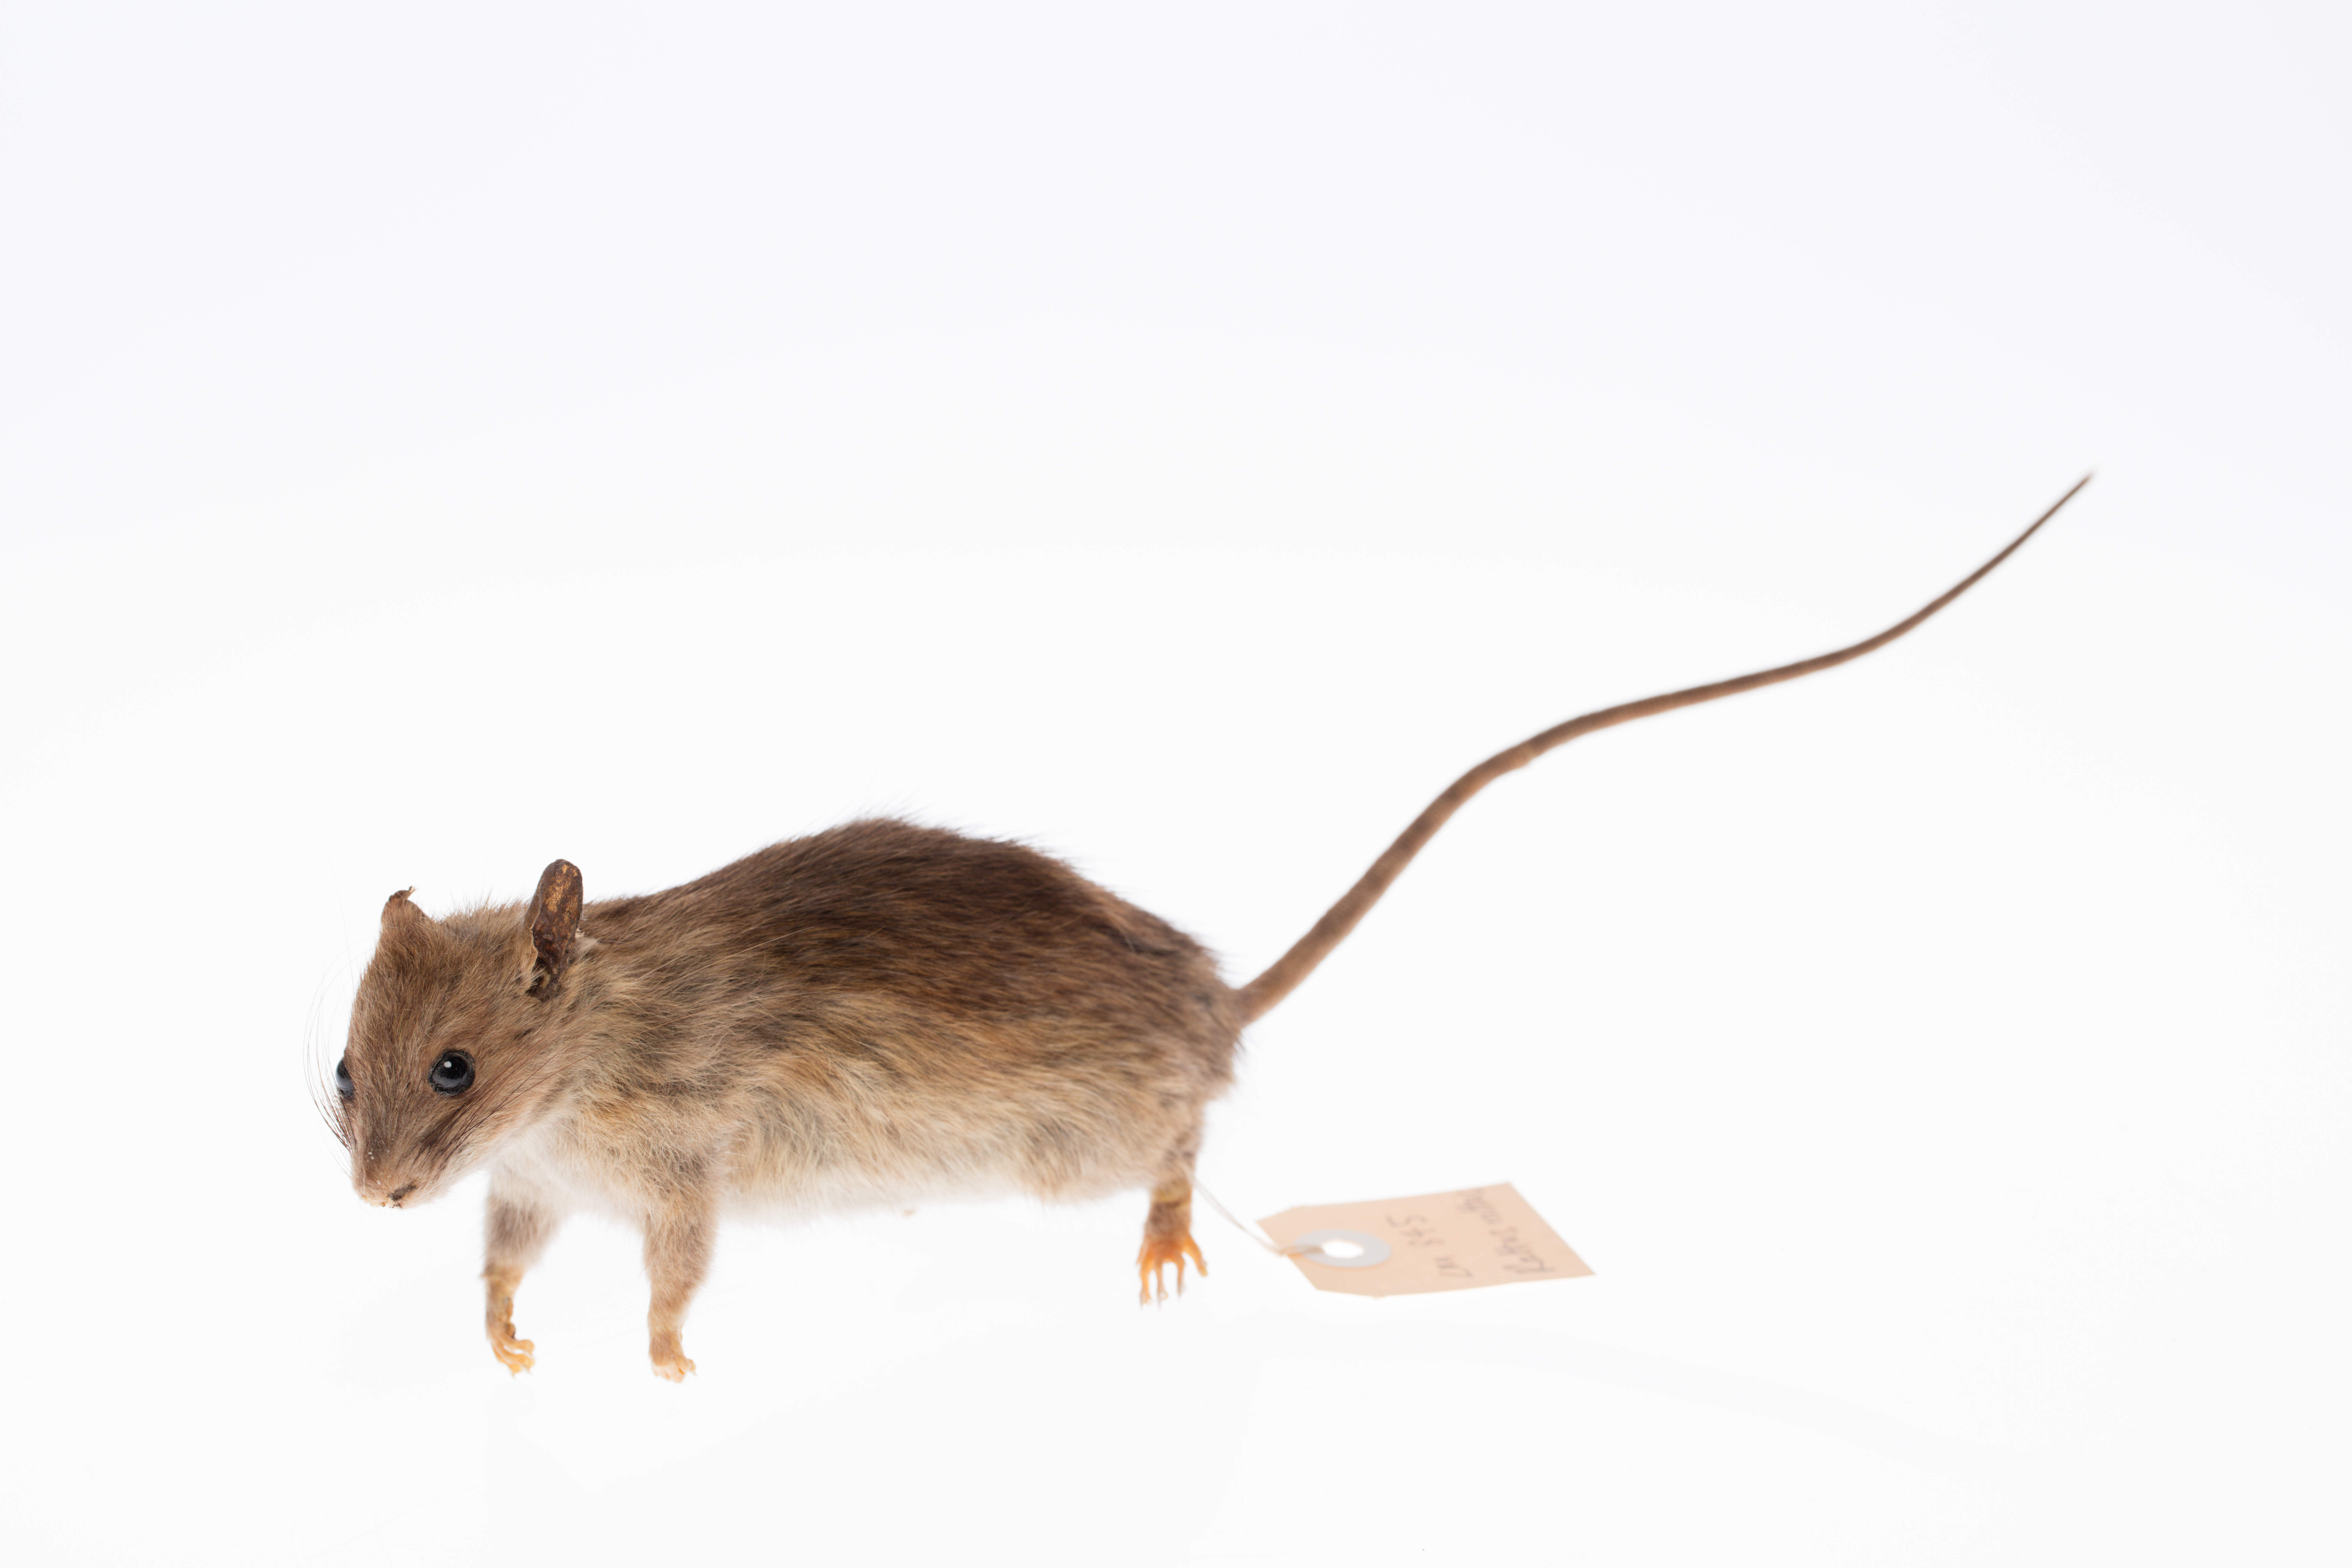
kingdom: Animalia
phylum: Chordata
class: Mammalia
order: Rodentia
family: Muridae
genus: Rattus
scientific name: Rattus rattus
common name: Black rat
